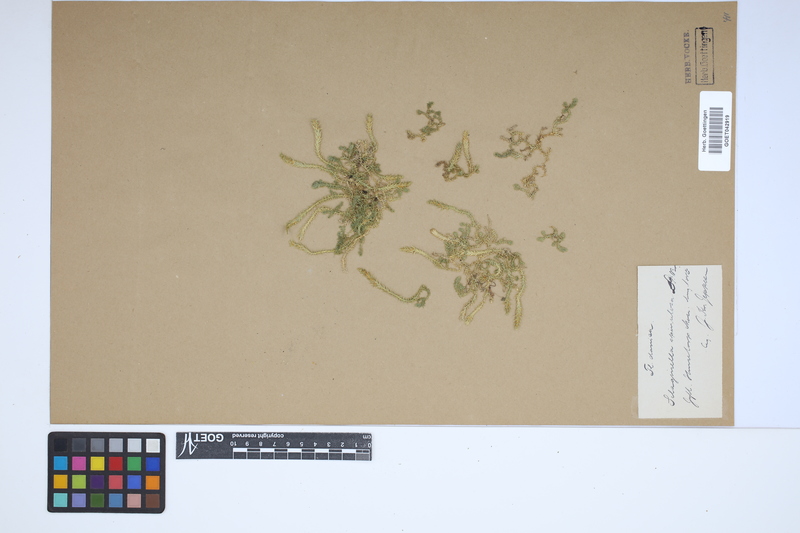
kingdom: Plantae
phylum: Tracheophyta
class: Lycopodiopsida
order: Selaginellales
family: Selaginellaceae
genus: Selaginella
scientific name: Selaginella selaginoides
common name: Prickly mountain-moss
